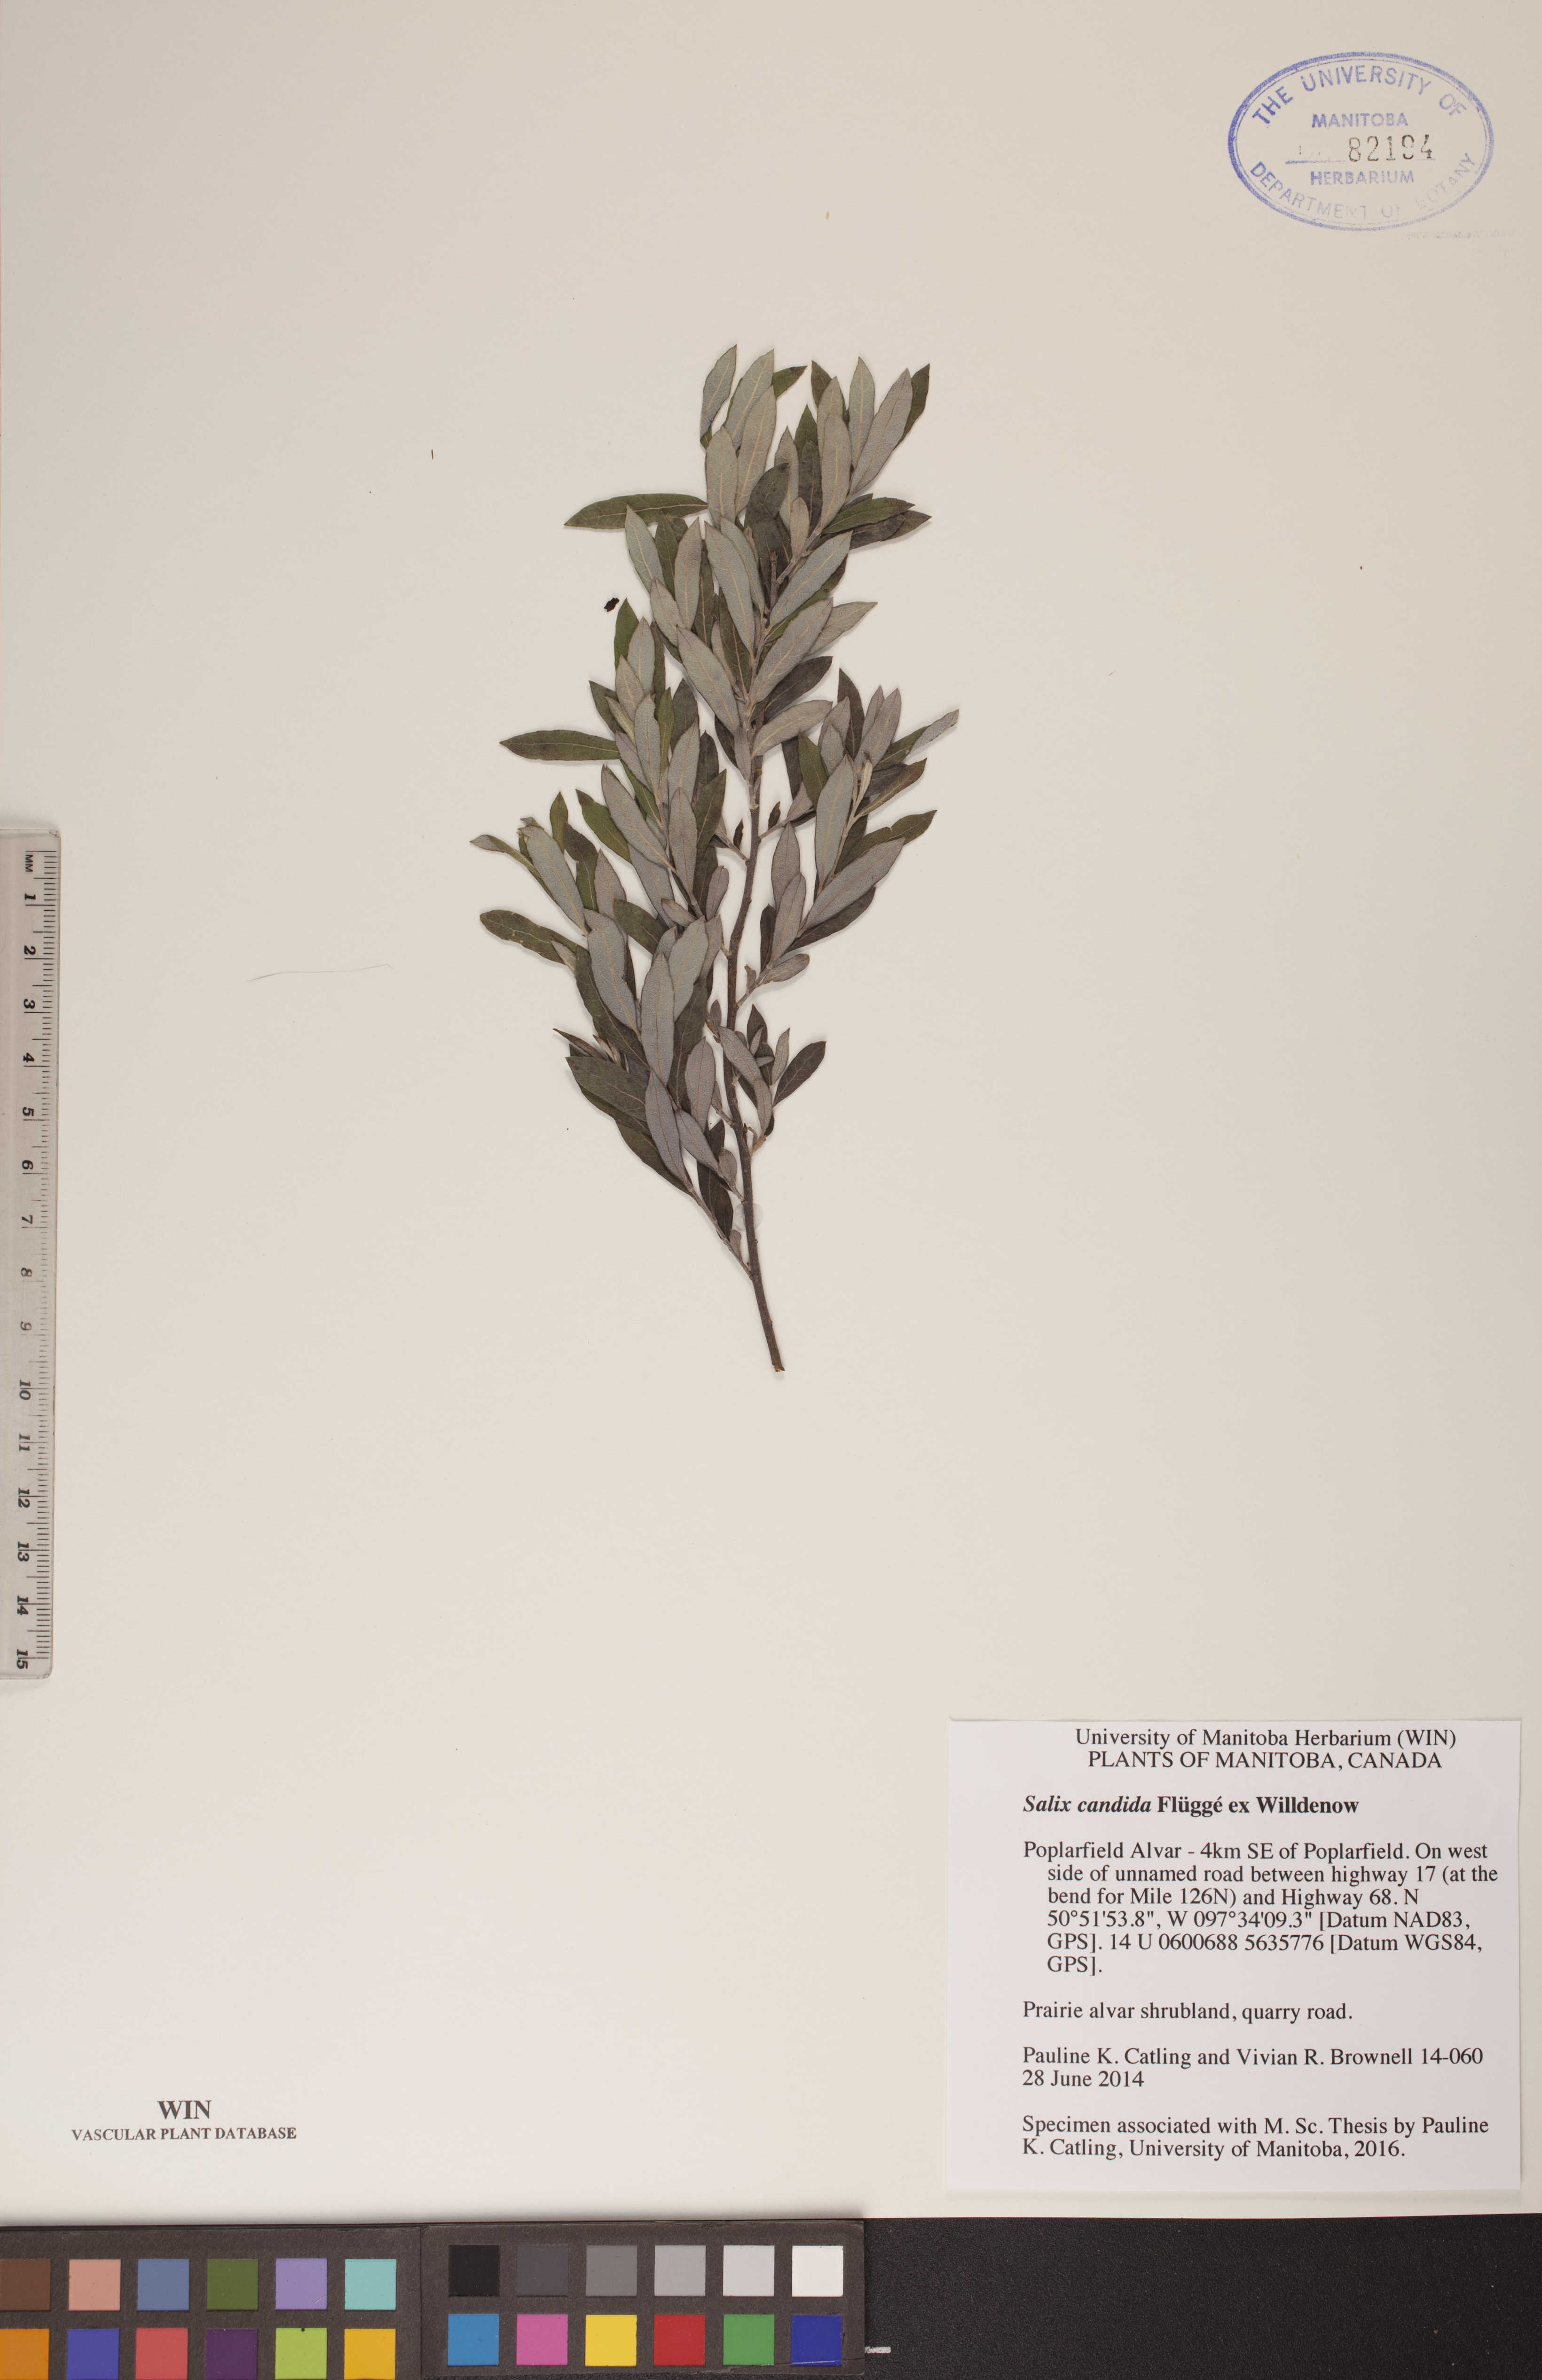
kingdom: Plantae
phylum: Tracheophyta
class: Magnoliopsida
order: Malpighiales
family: Salicaceae
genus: Salix
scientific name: Salix candida
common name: Hoary willow
